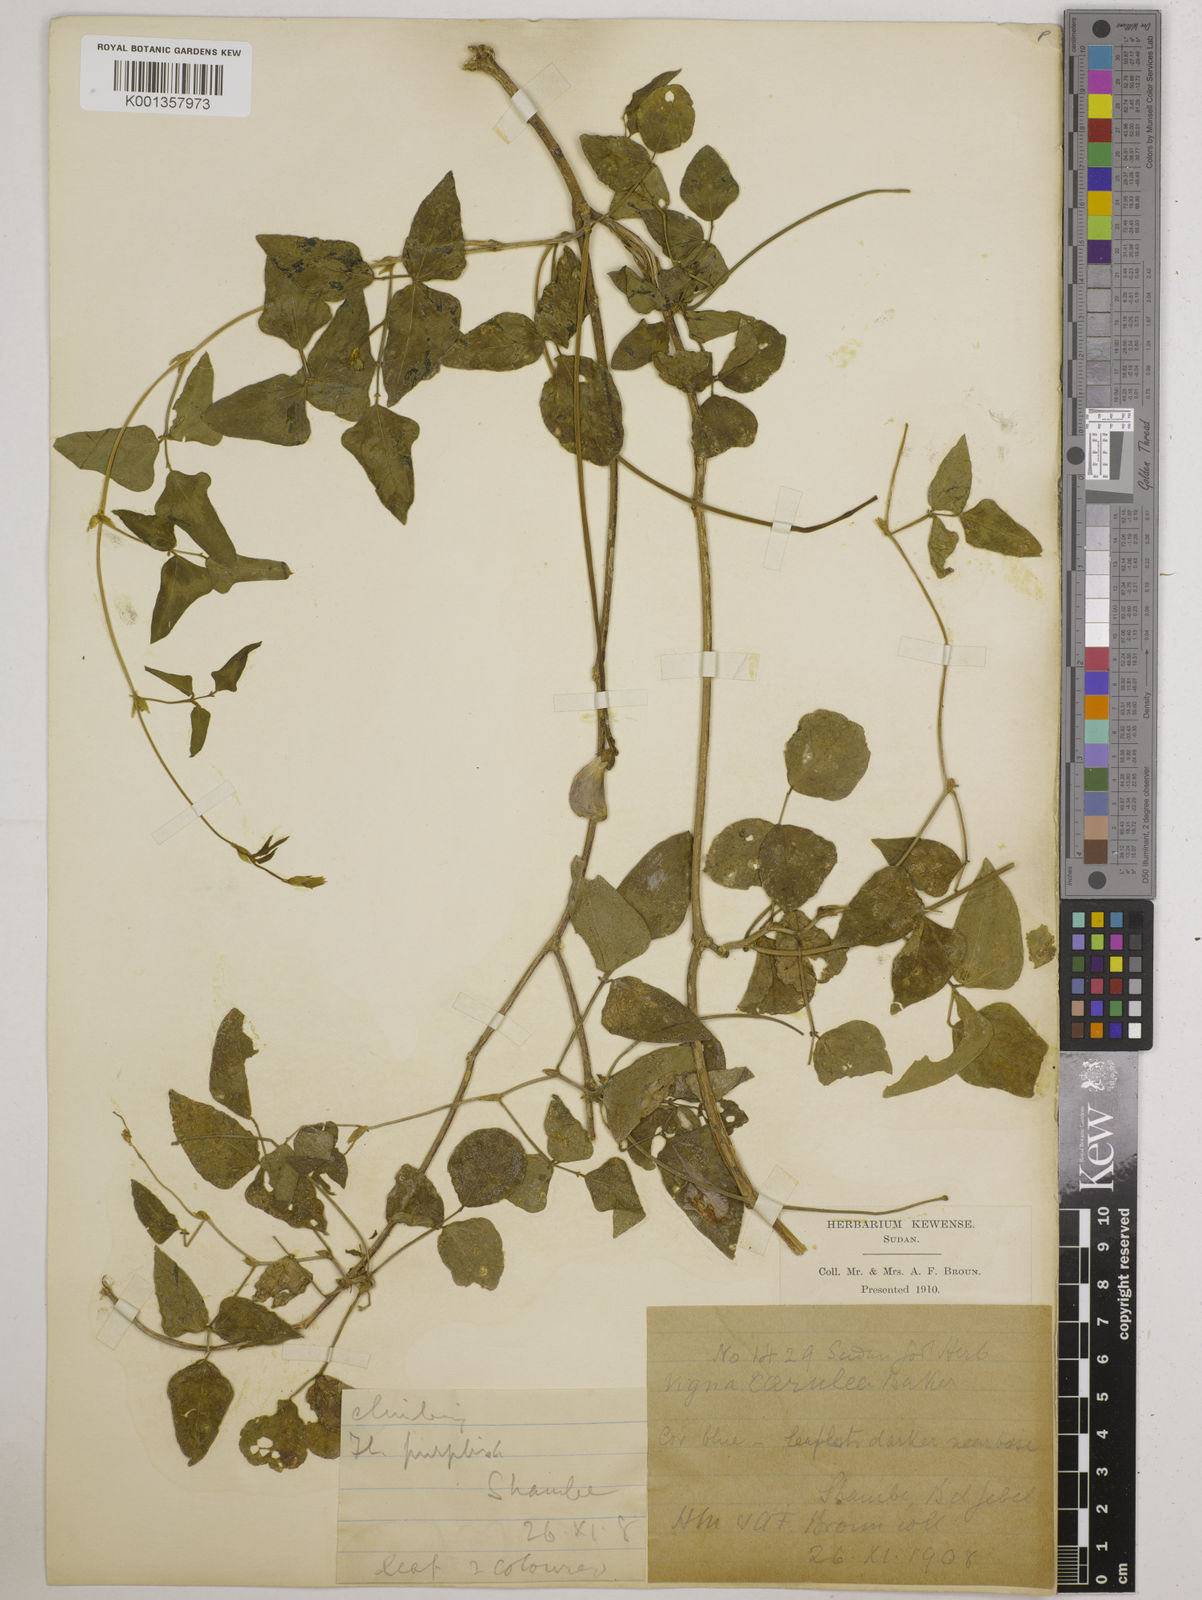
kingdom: Plantae
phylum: Tracheophyta
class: Magnoliopsida
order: Fabales
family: Fabaceae
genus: Vigna
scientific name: Vigna
